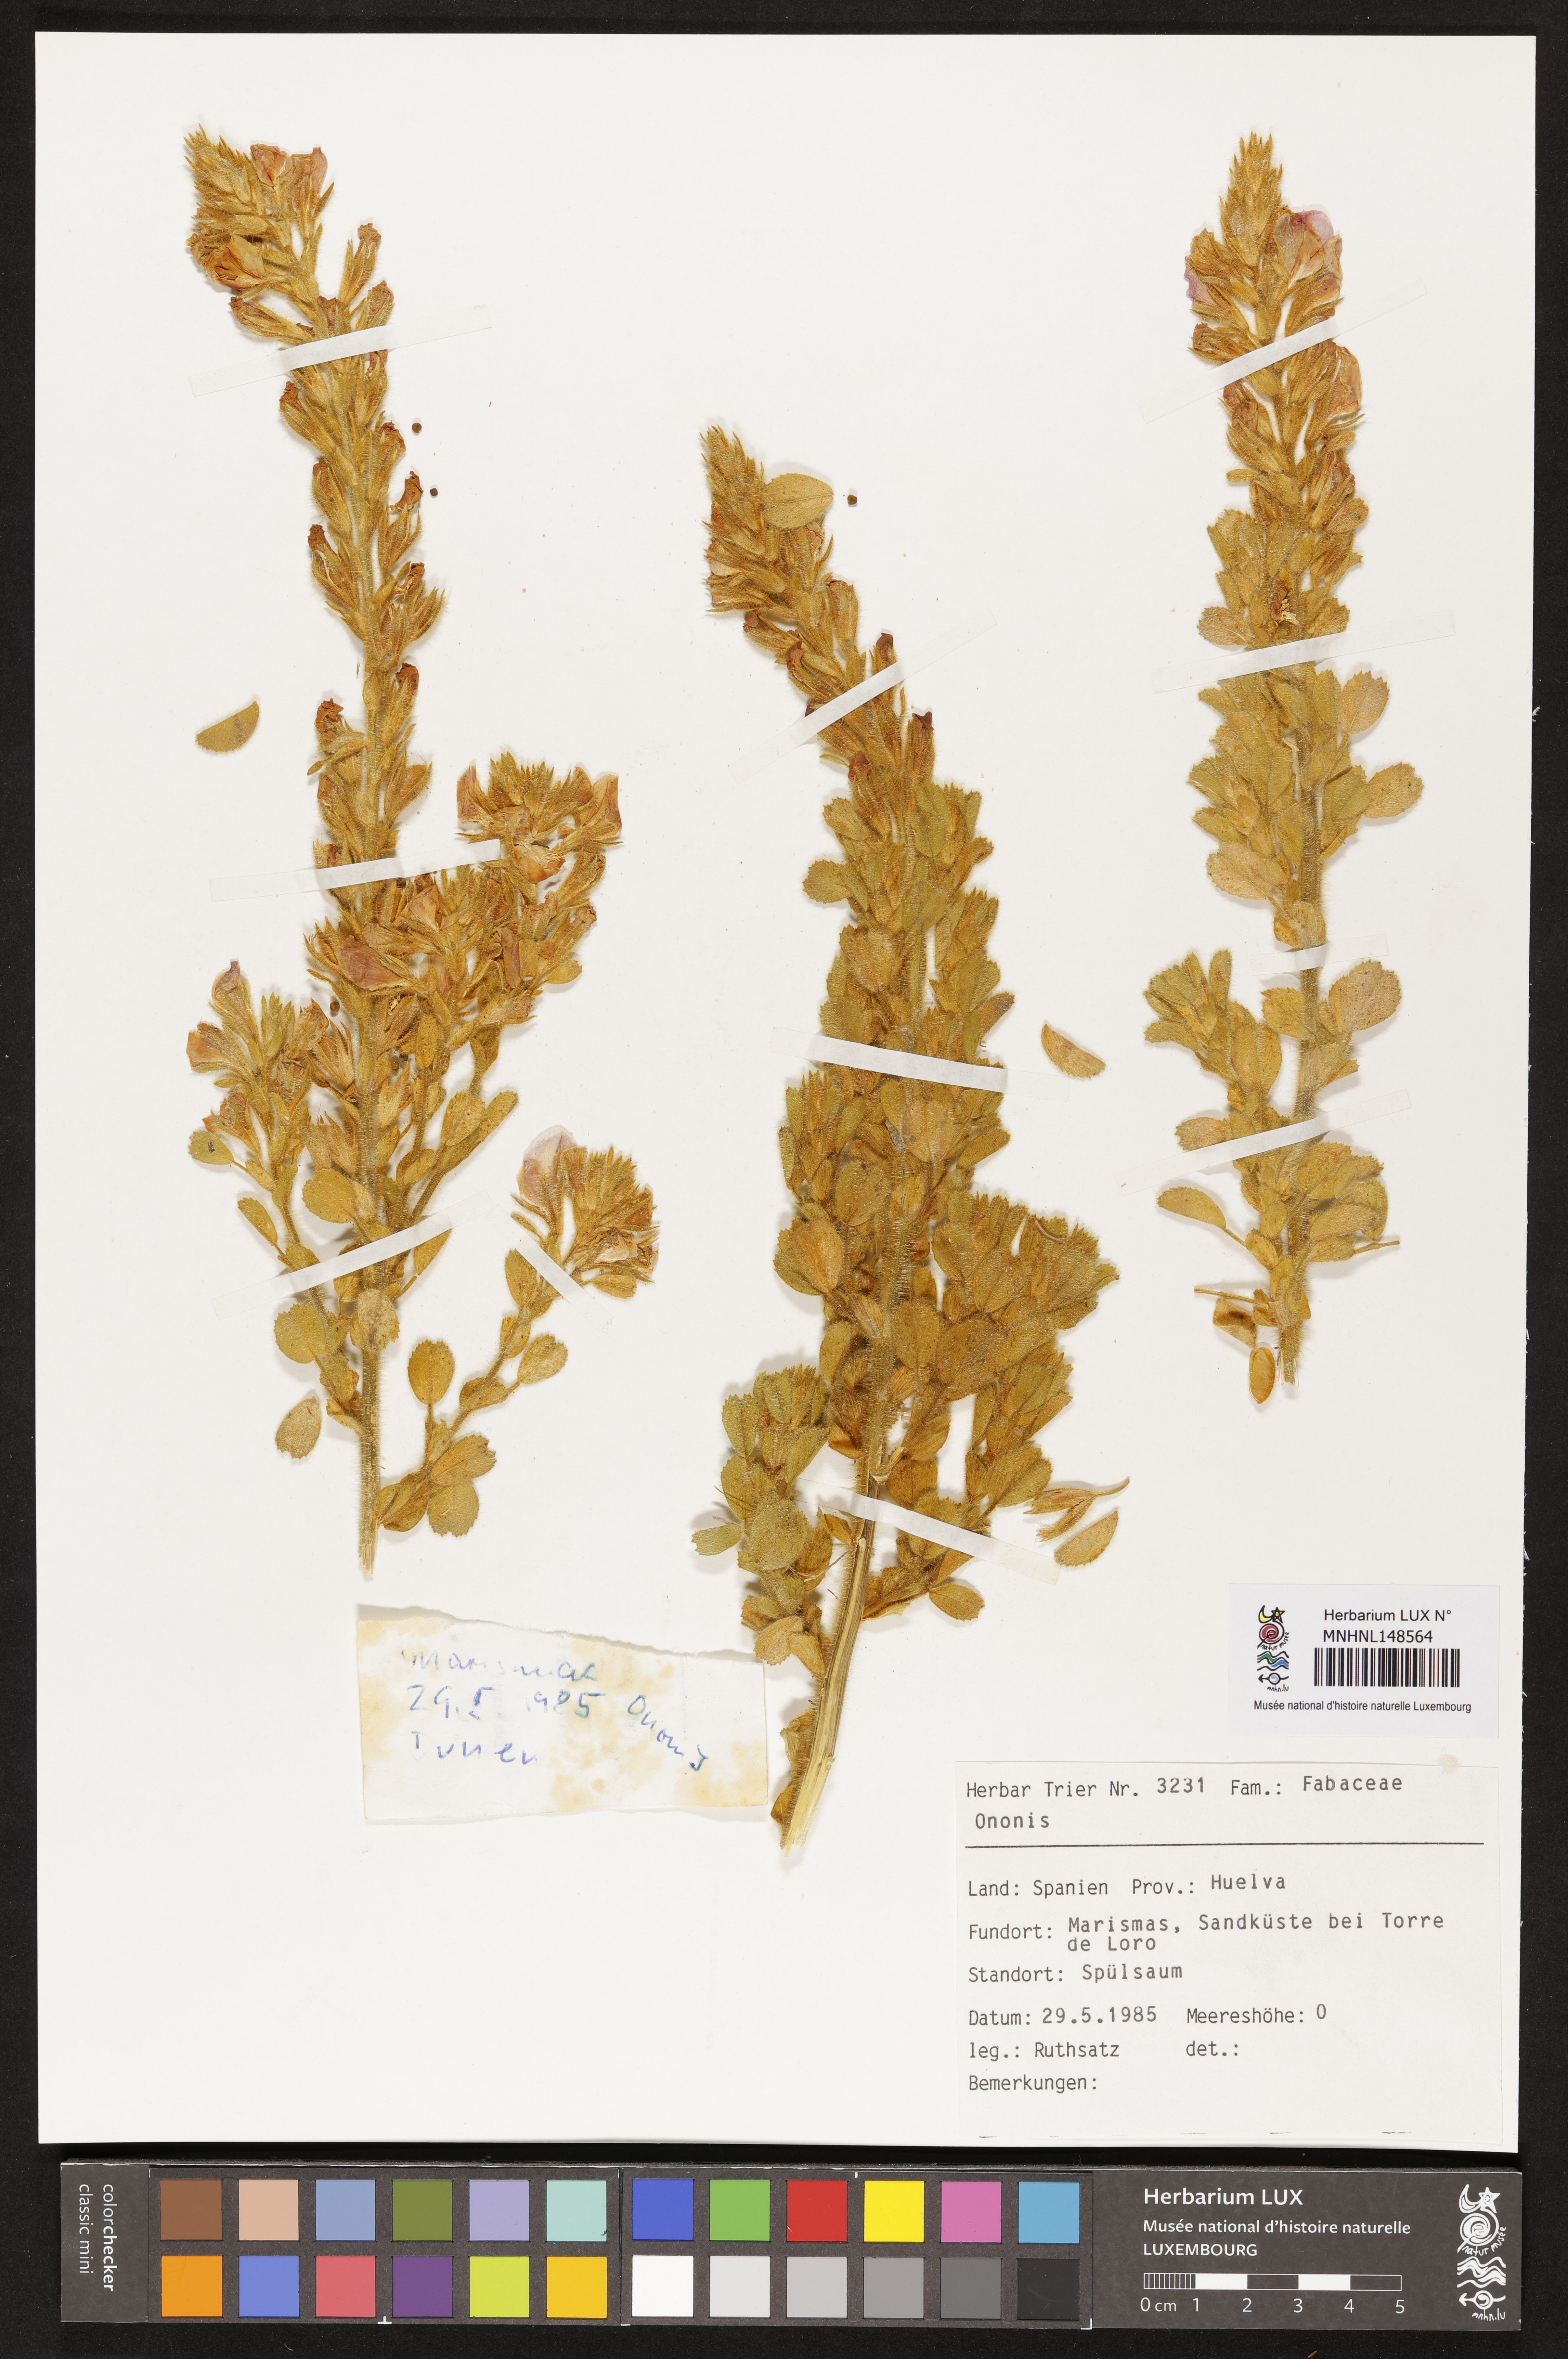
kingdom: Plantae
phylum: Tracheophyta
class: Magnoliopsida
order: Fabales
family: Fabaceae
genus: Ononis
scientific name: Ononis
